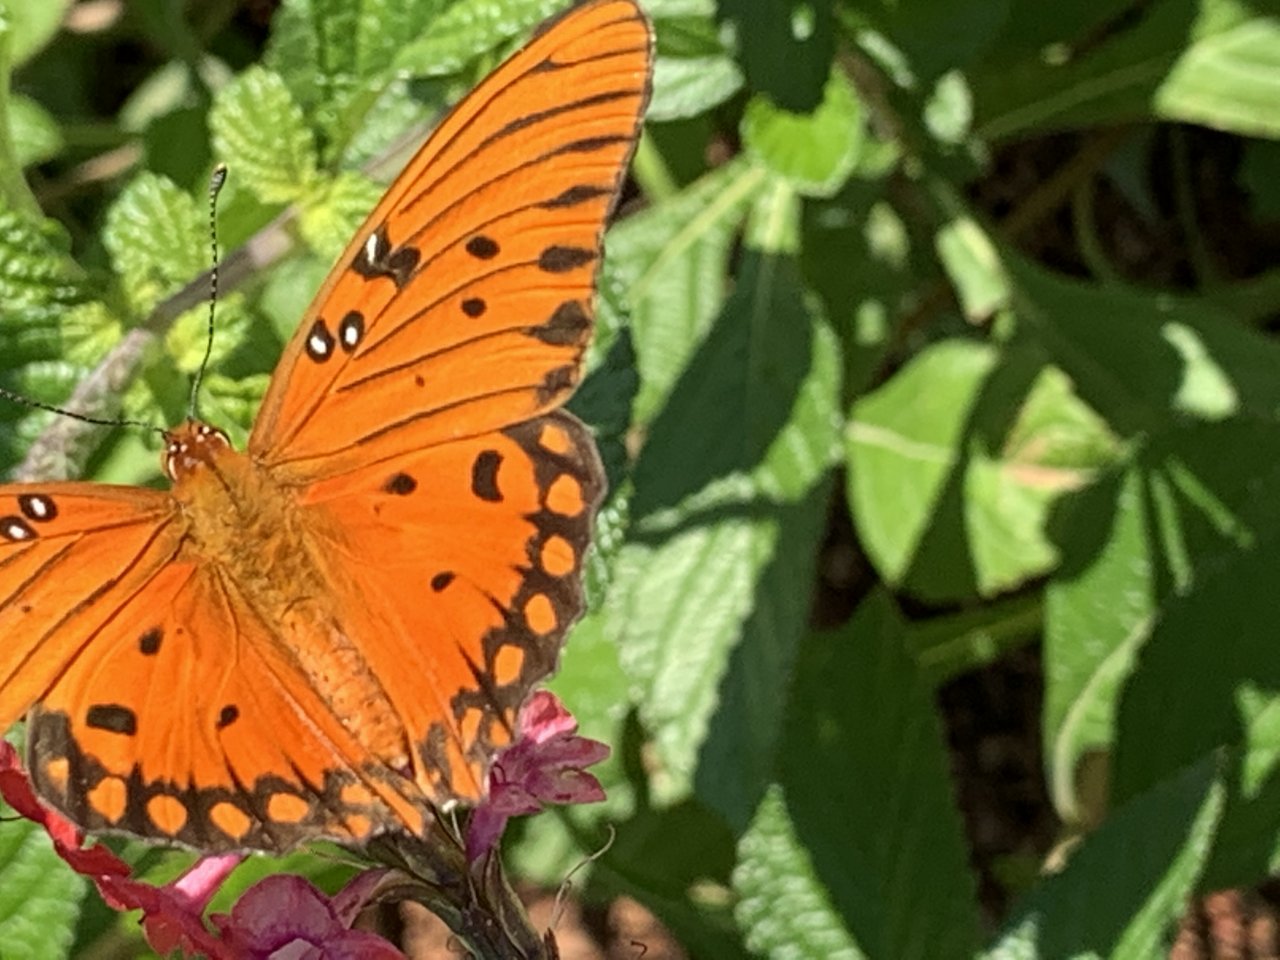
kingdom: Animalia
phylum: Arthropoda
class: Insecta
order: Lepidoptera
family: Nymphalidae
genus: Dione
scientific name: Dione vanillae
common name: Gulf Fritillary
